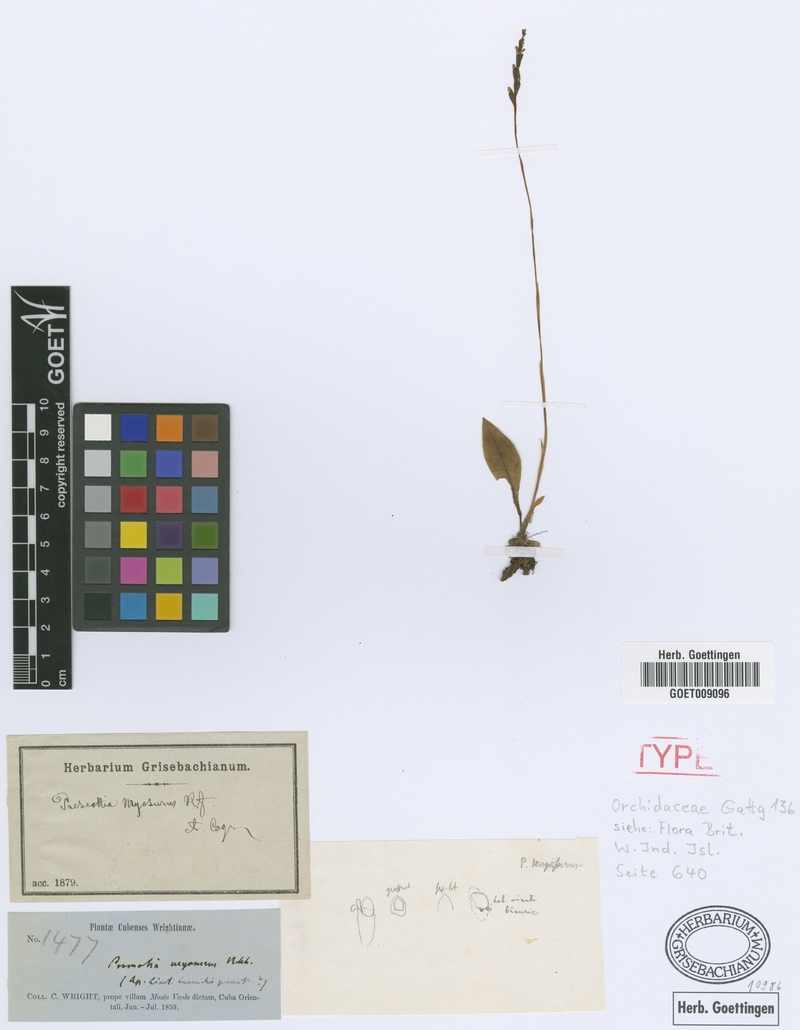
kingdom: Plantae
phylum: Tracheophyta
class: Liliopsida
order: Asparagales
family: Orchidaceae
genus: Prescottia
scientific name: Prescottia oligantha
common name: Small prescott orchid
